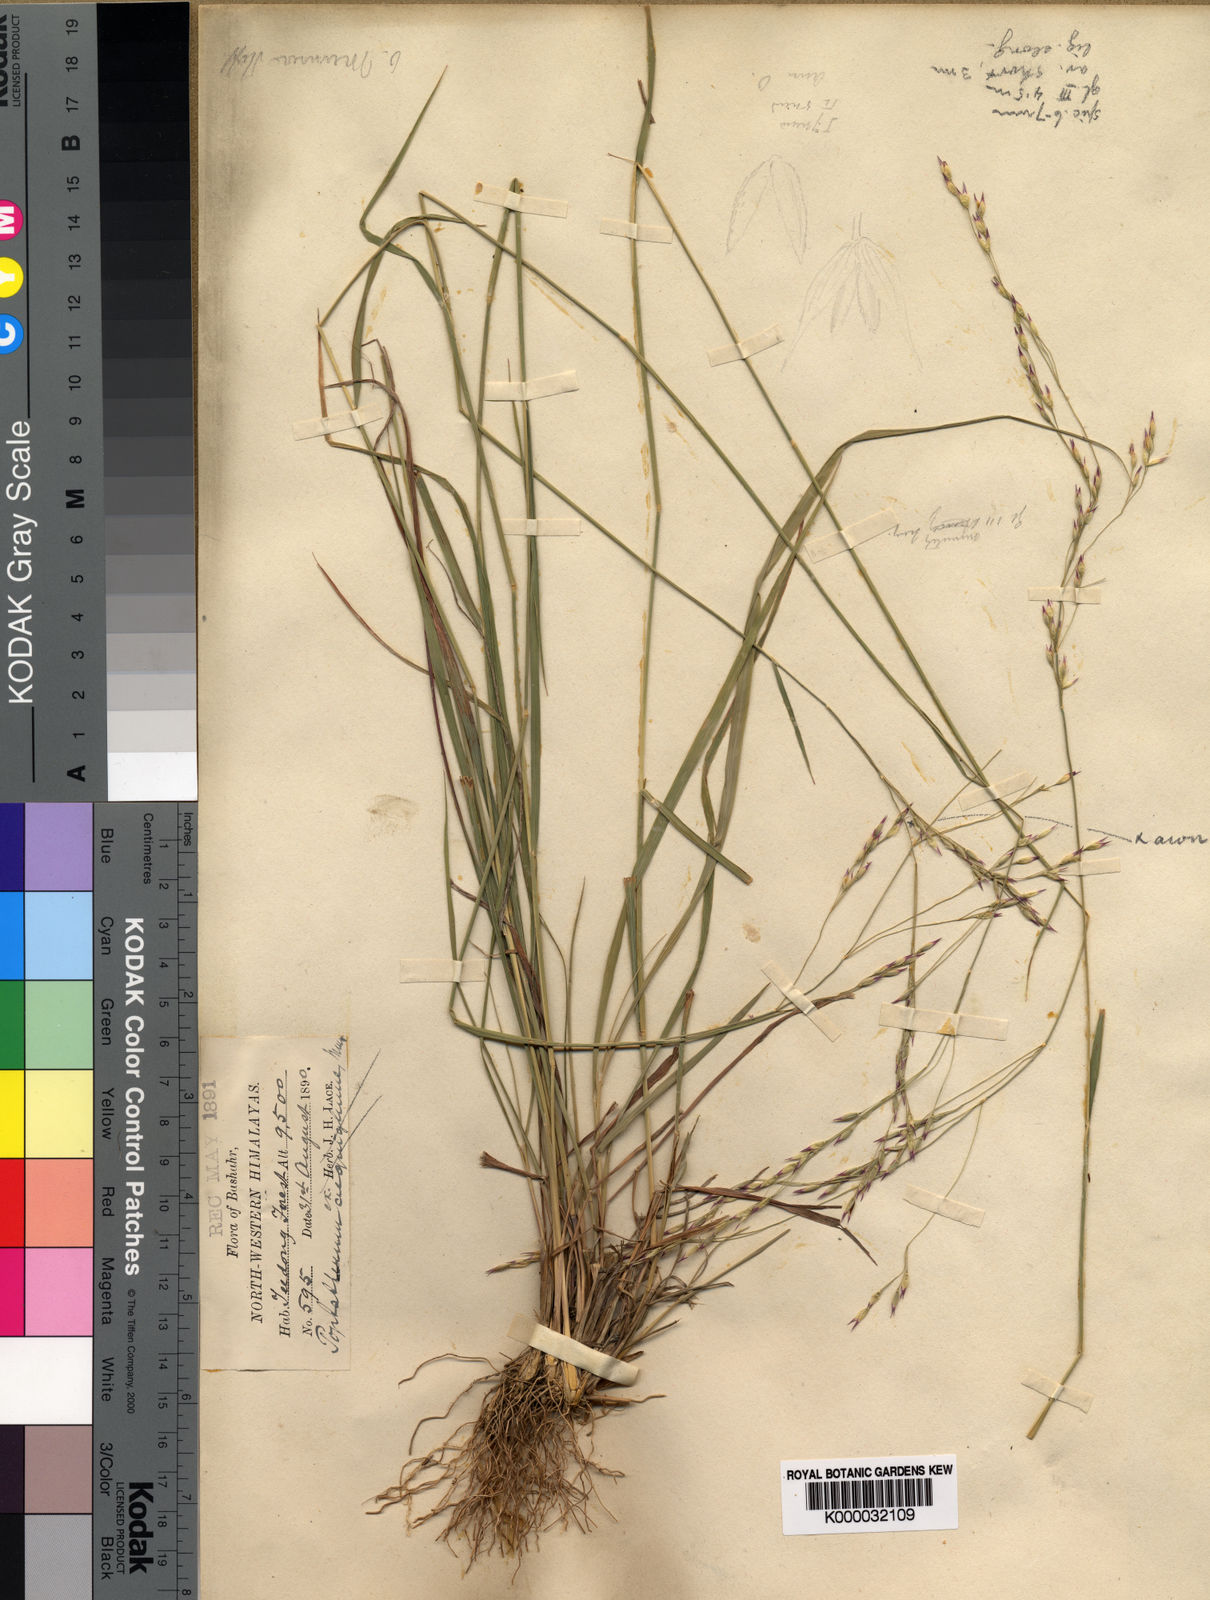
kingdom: Plantae
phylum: Tracheophyta
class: Liliopsida
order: Poales
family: Poaceae
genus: Piptatherum
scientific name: Piptatherum munroi
